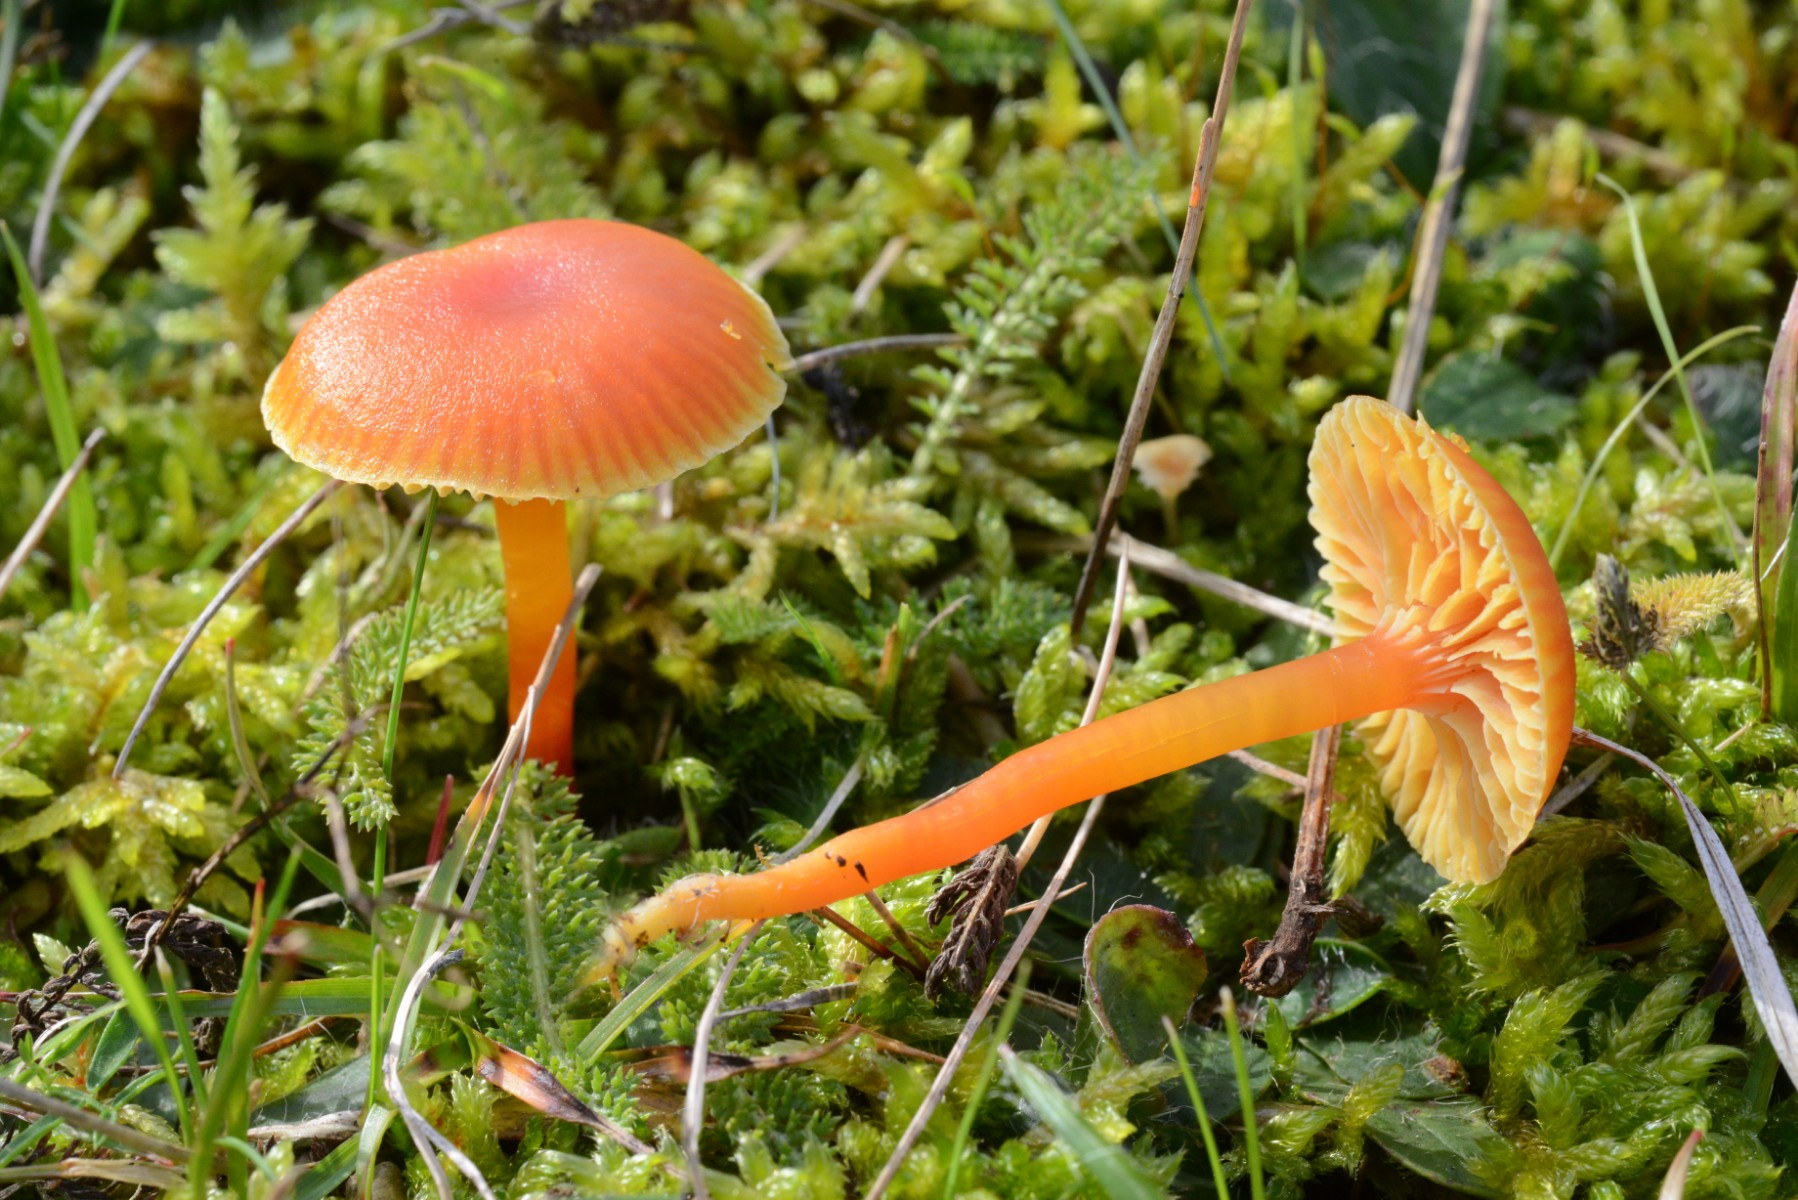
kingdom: Fungi
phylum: Basidiomycota
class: Agaricomycetes
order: Agaricales
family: Hygrophoraceae
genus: Hygrocybe
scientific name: Hygrocybe mucronella
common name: bitter vokshat
